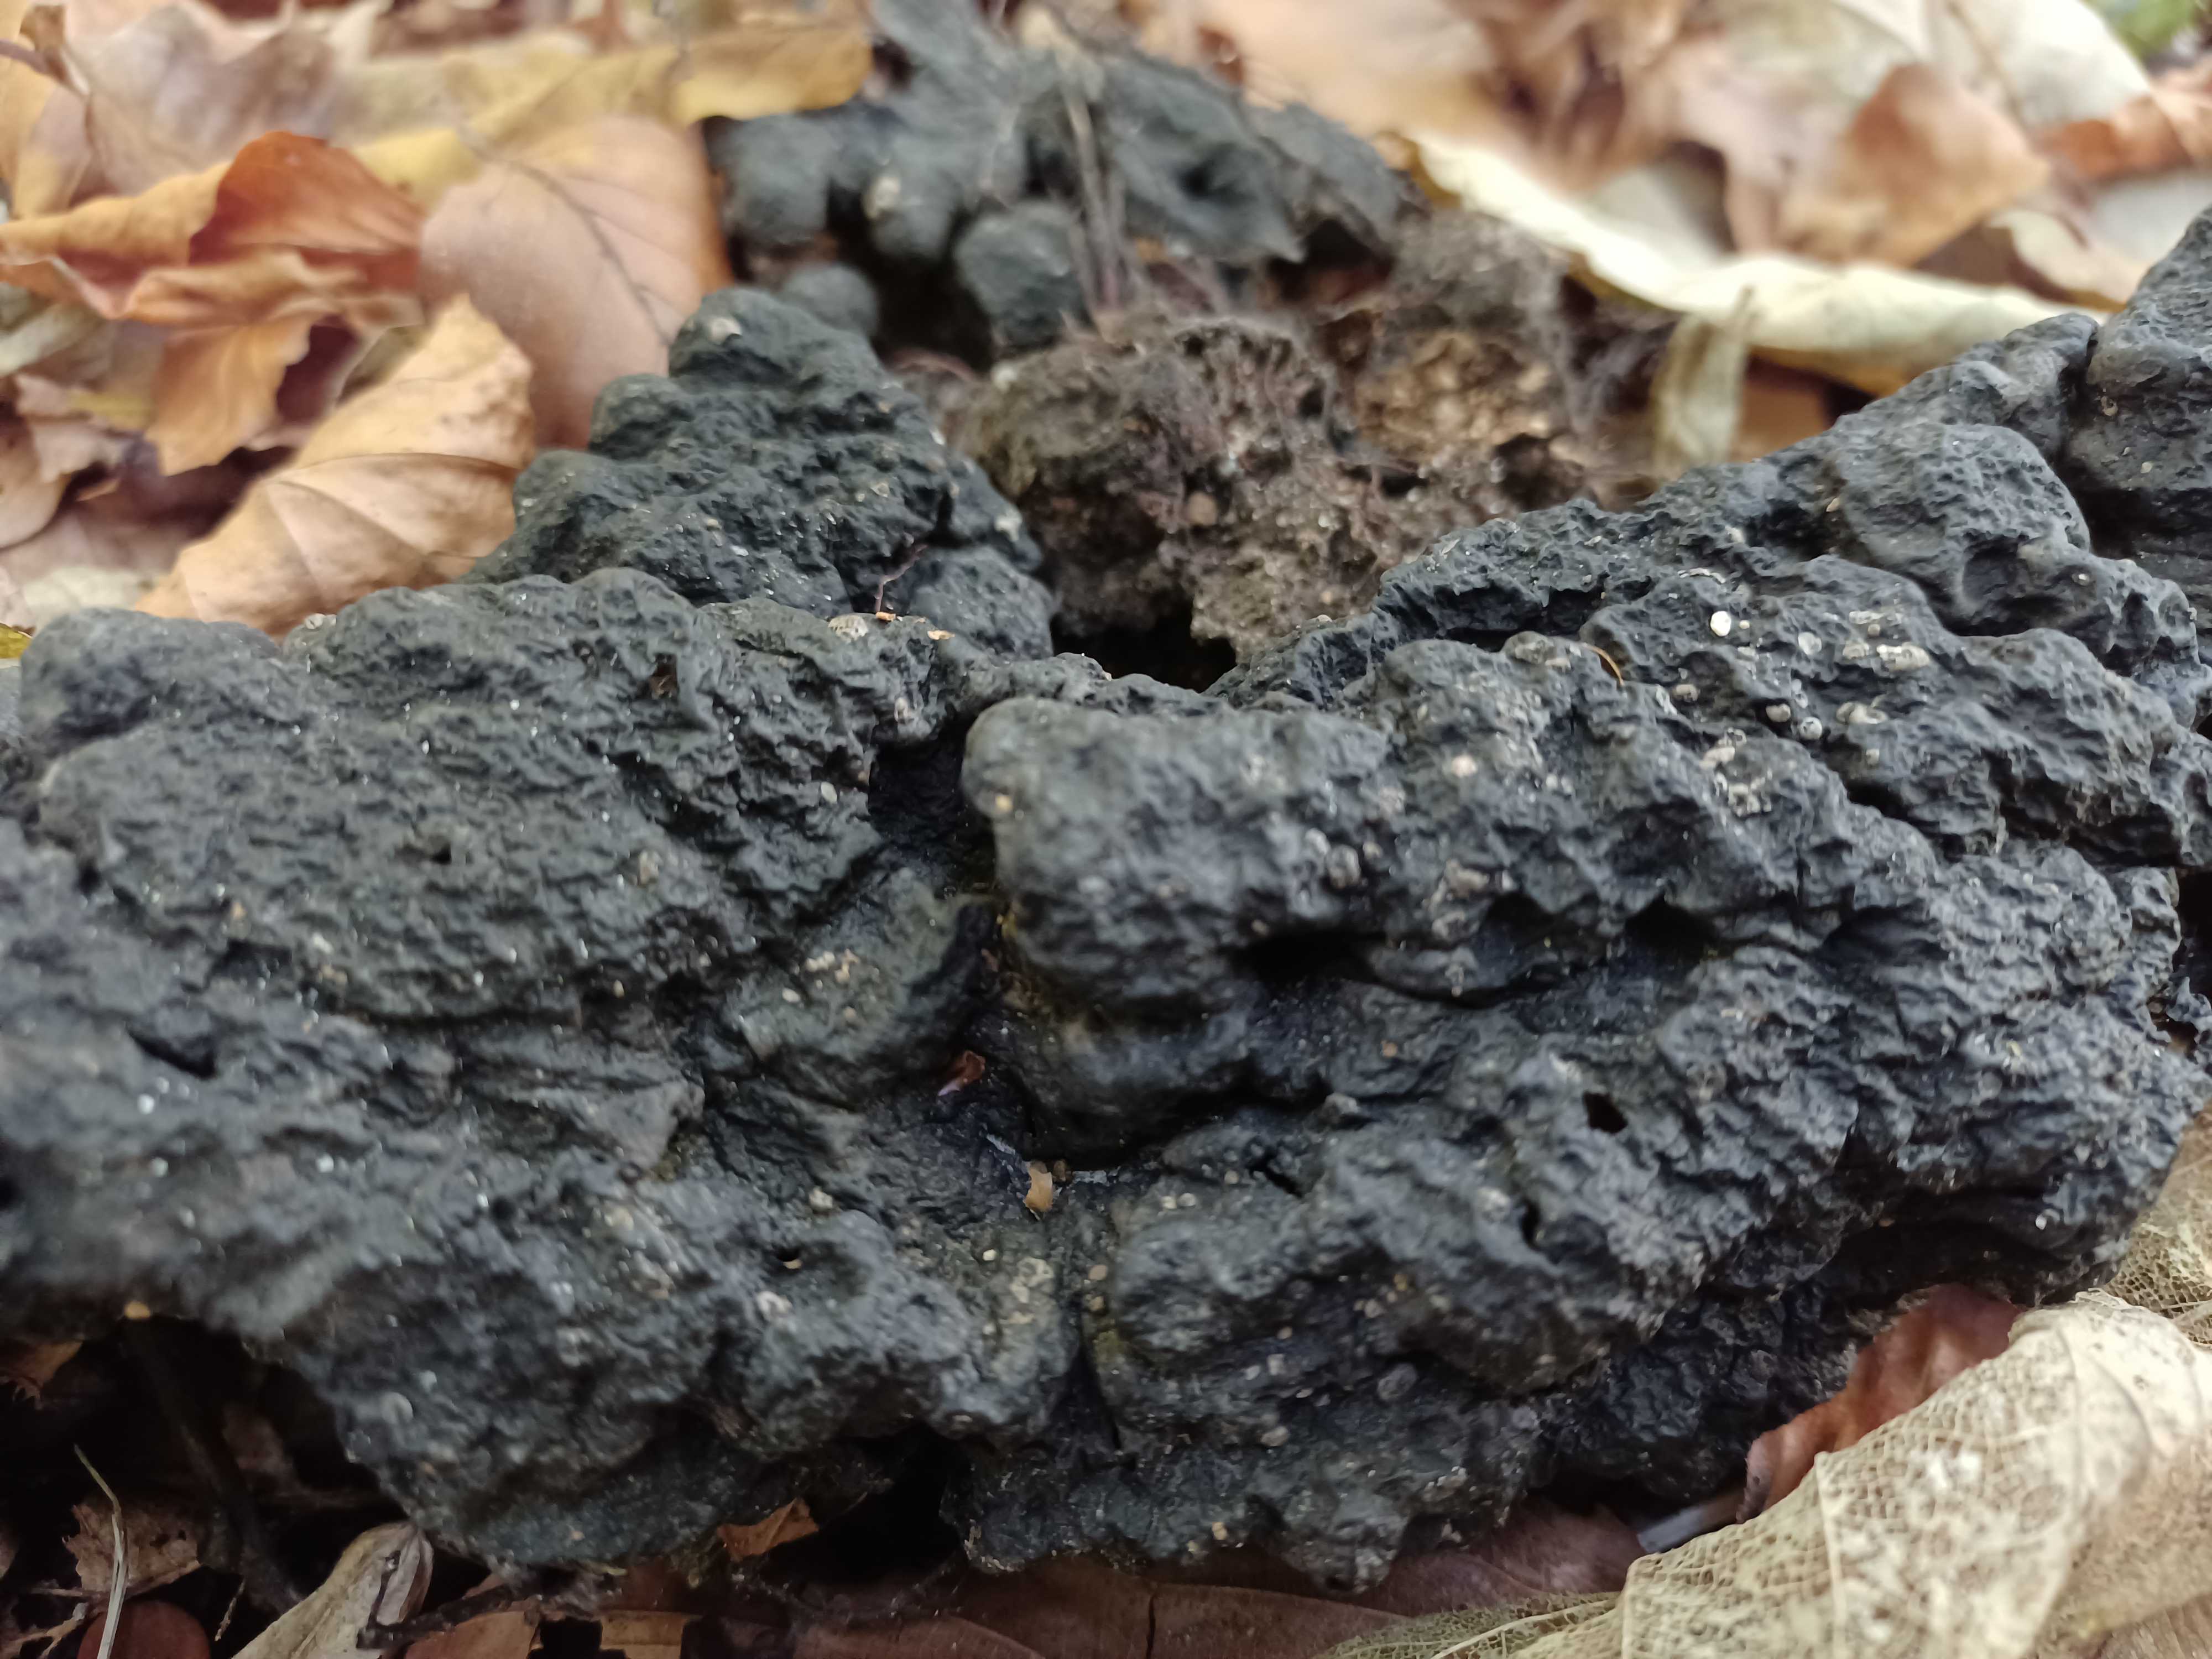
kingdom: Fungi
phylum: Ascomycota
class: Sordariomycetes
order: Xylariales
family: Xylariaceae
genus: Kretzschmaria
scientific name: Kretzschmaria deusta
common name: stor kulsvamp
